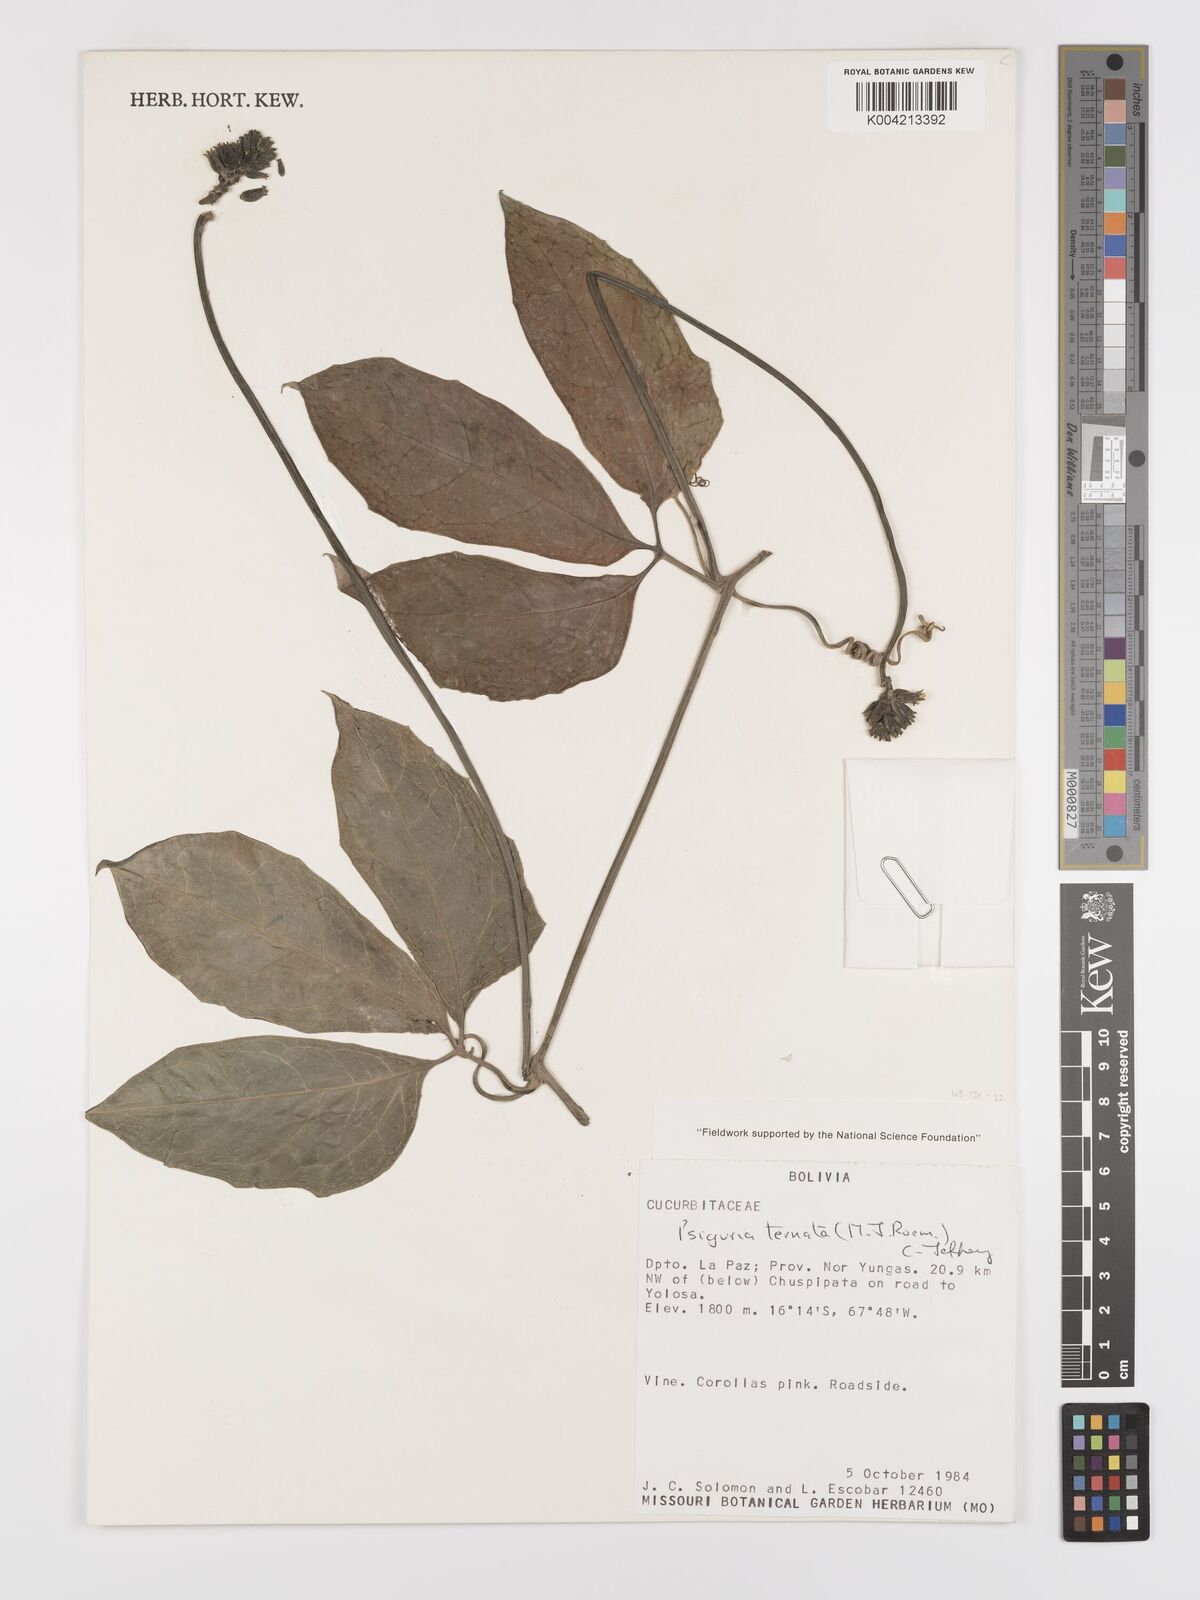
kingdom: Plantae
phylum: Tracheophyta
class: Magnoliopsida
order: Cucurbitales
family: Cucurbitaceae
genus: Psiguria
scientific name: Psiguria ternata
